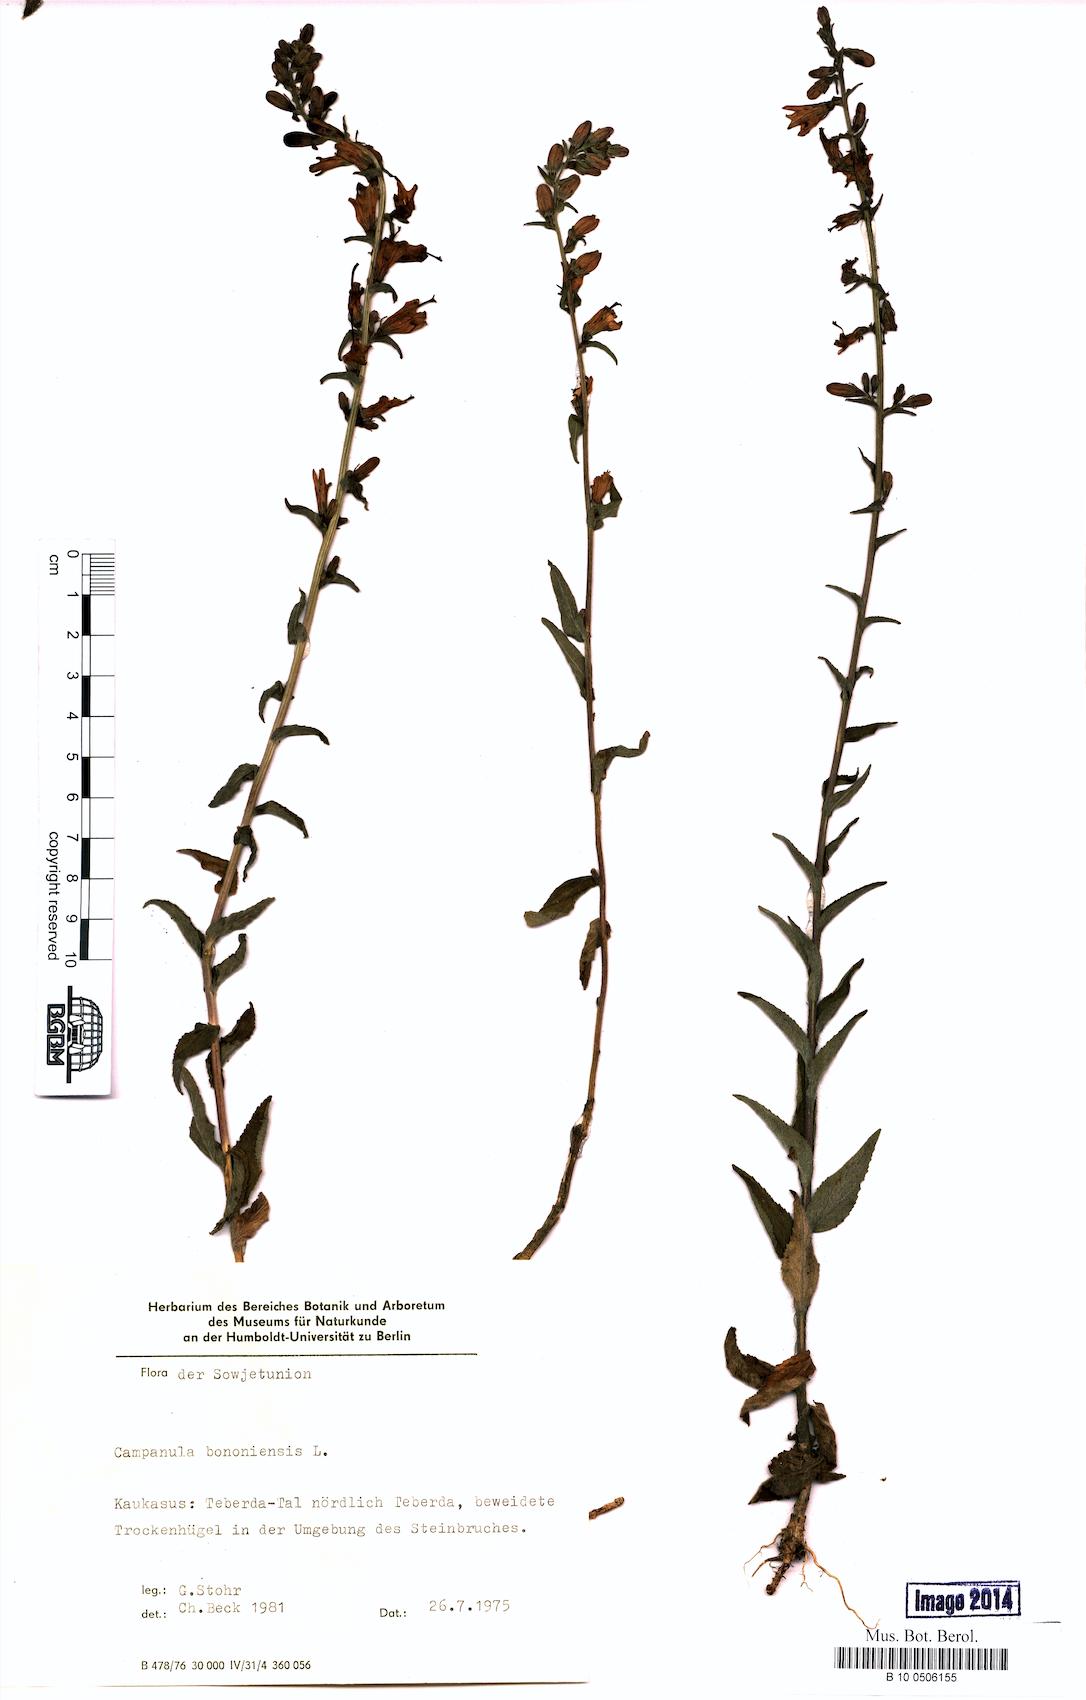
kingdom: Plantae
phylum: Tracheophyta
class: Magnoliopsida
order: Asterales
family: Campanulaceae
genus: Campanula
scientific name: Campanula bononiensis
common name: Pale bellflower
